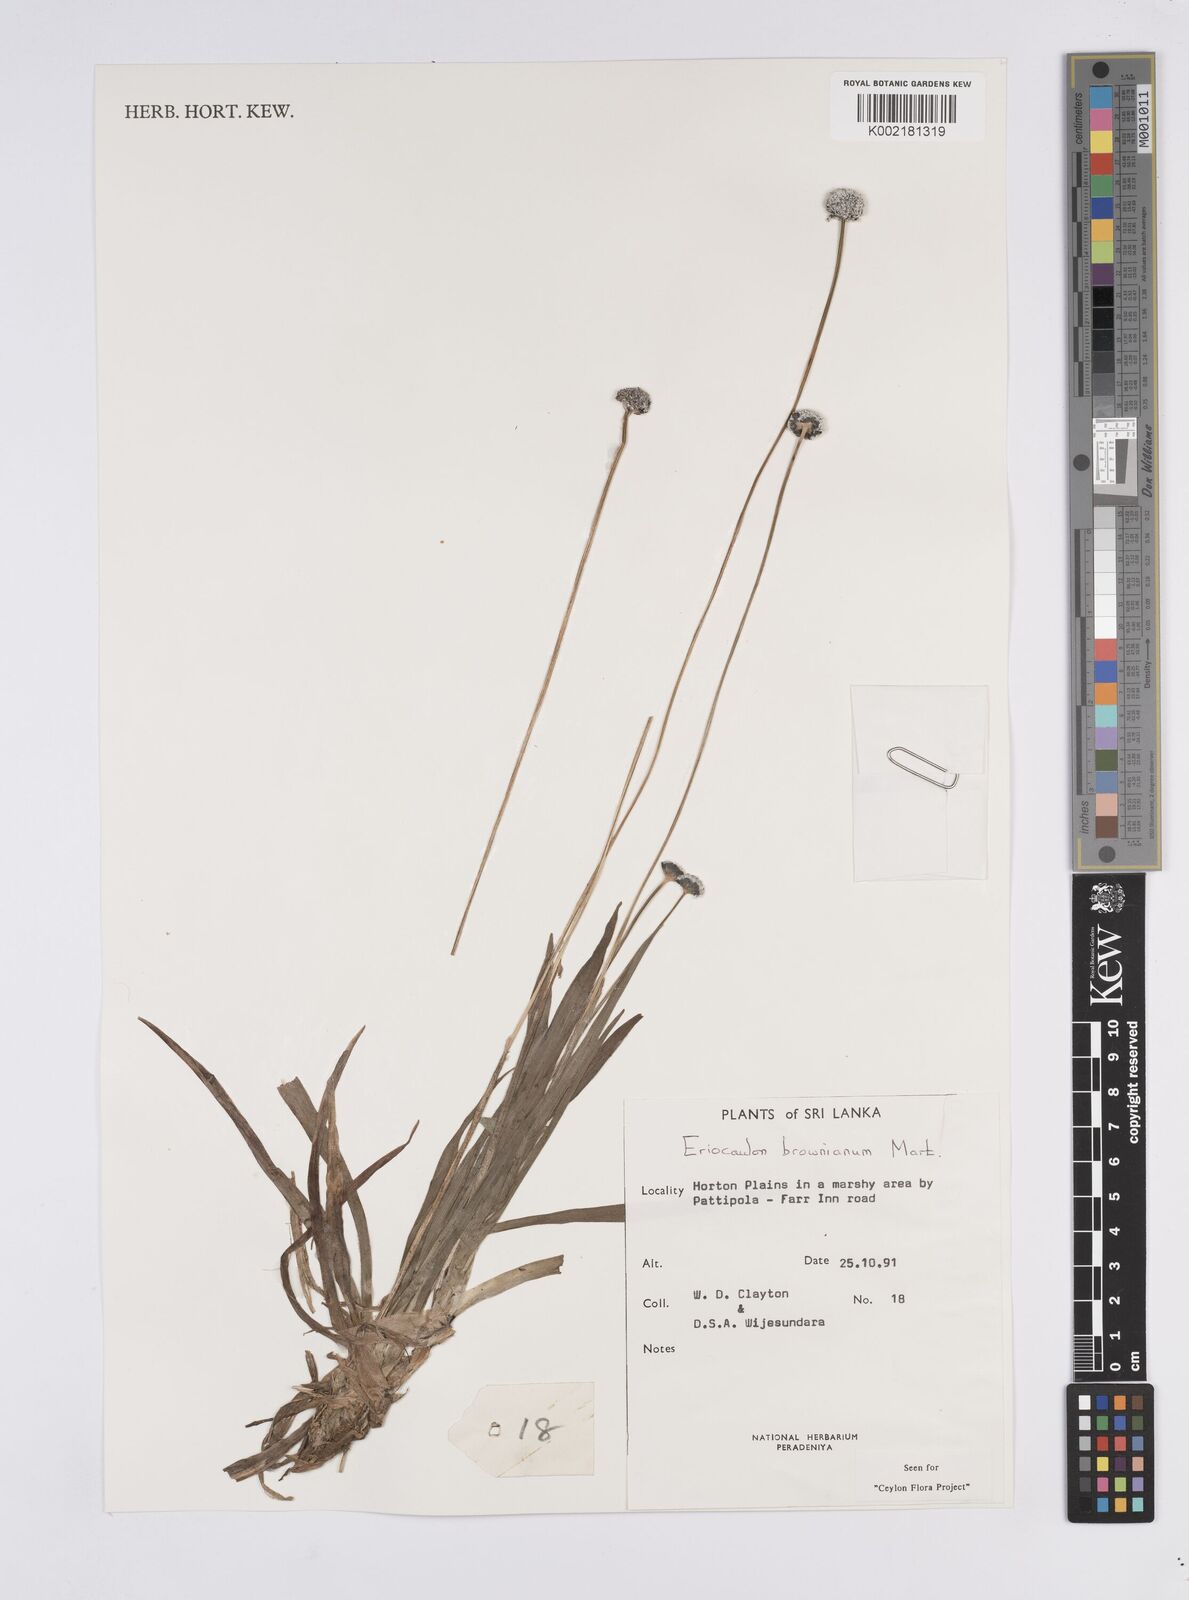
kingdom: Plantae
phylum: Tracheophyta
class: Liliopsida
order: Poales
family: Eriocaulaceae
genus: Eriocaulon
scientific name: Eriocaulon brownianum
